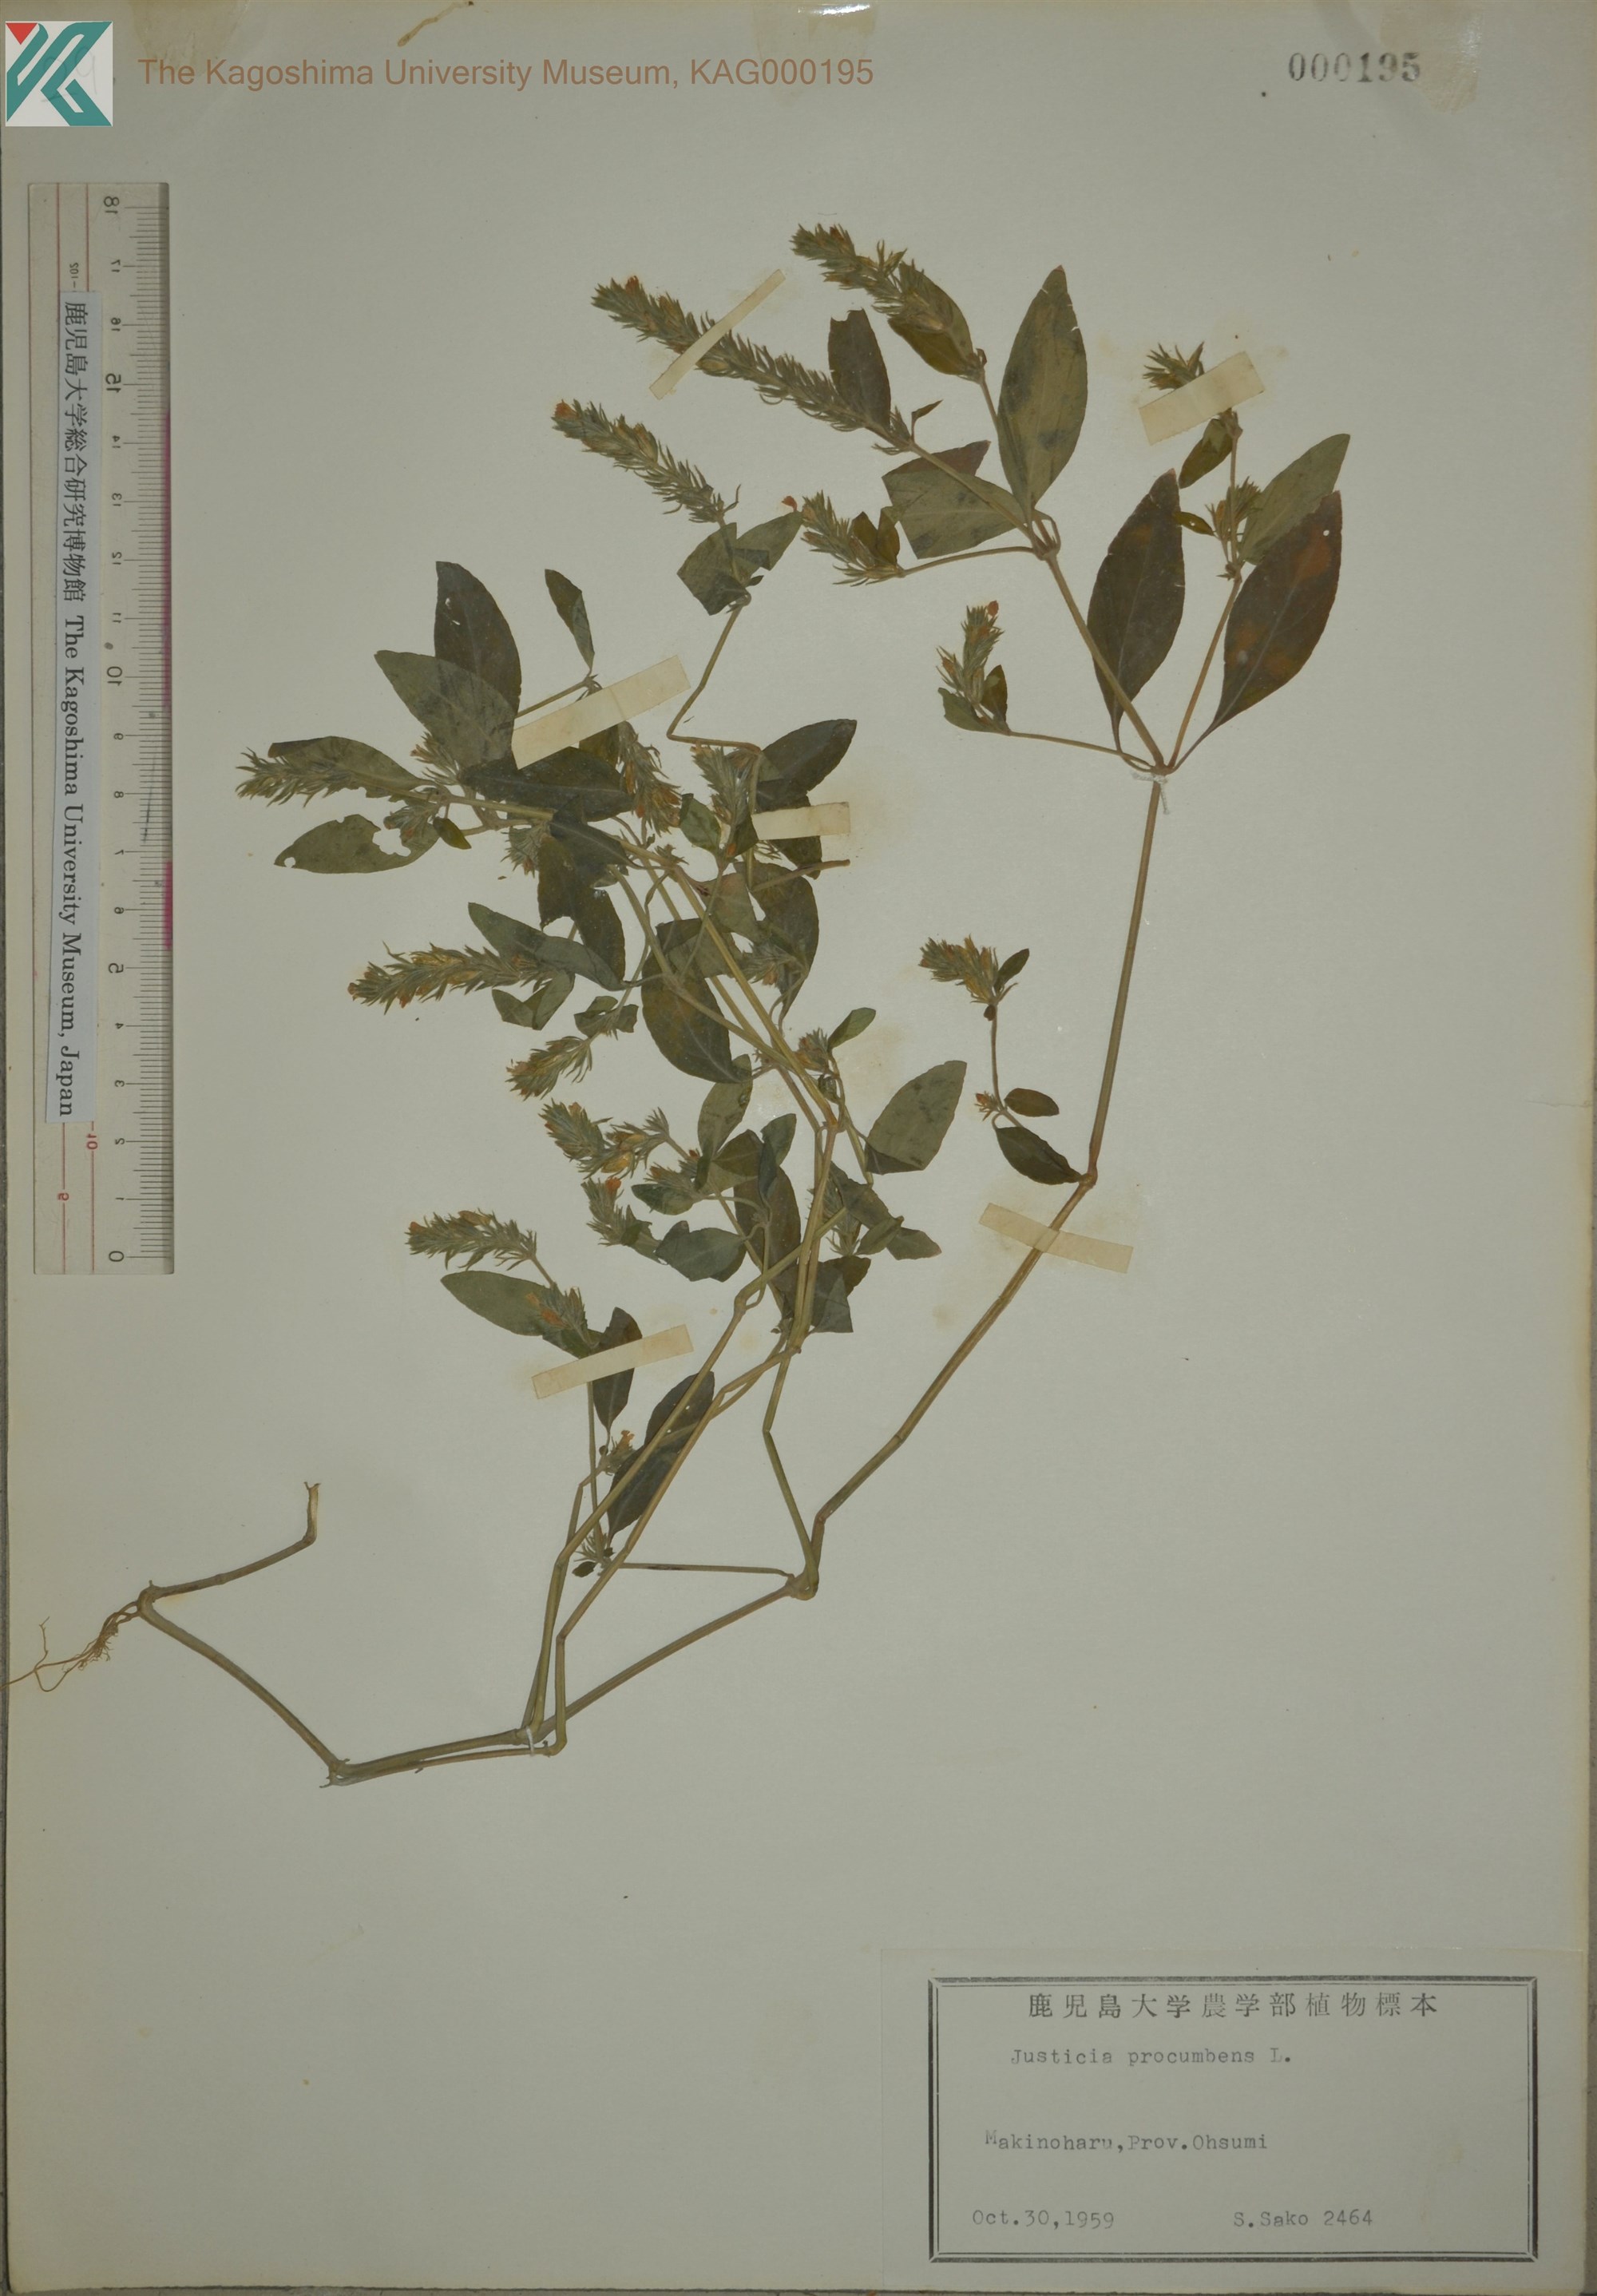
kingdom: Plantae
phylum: Tracheophyta
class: Magnoliopsida
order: Lamiales
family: Acanthaceae
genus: Rostellularia
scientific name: Rostellularia procumbens
